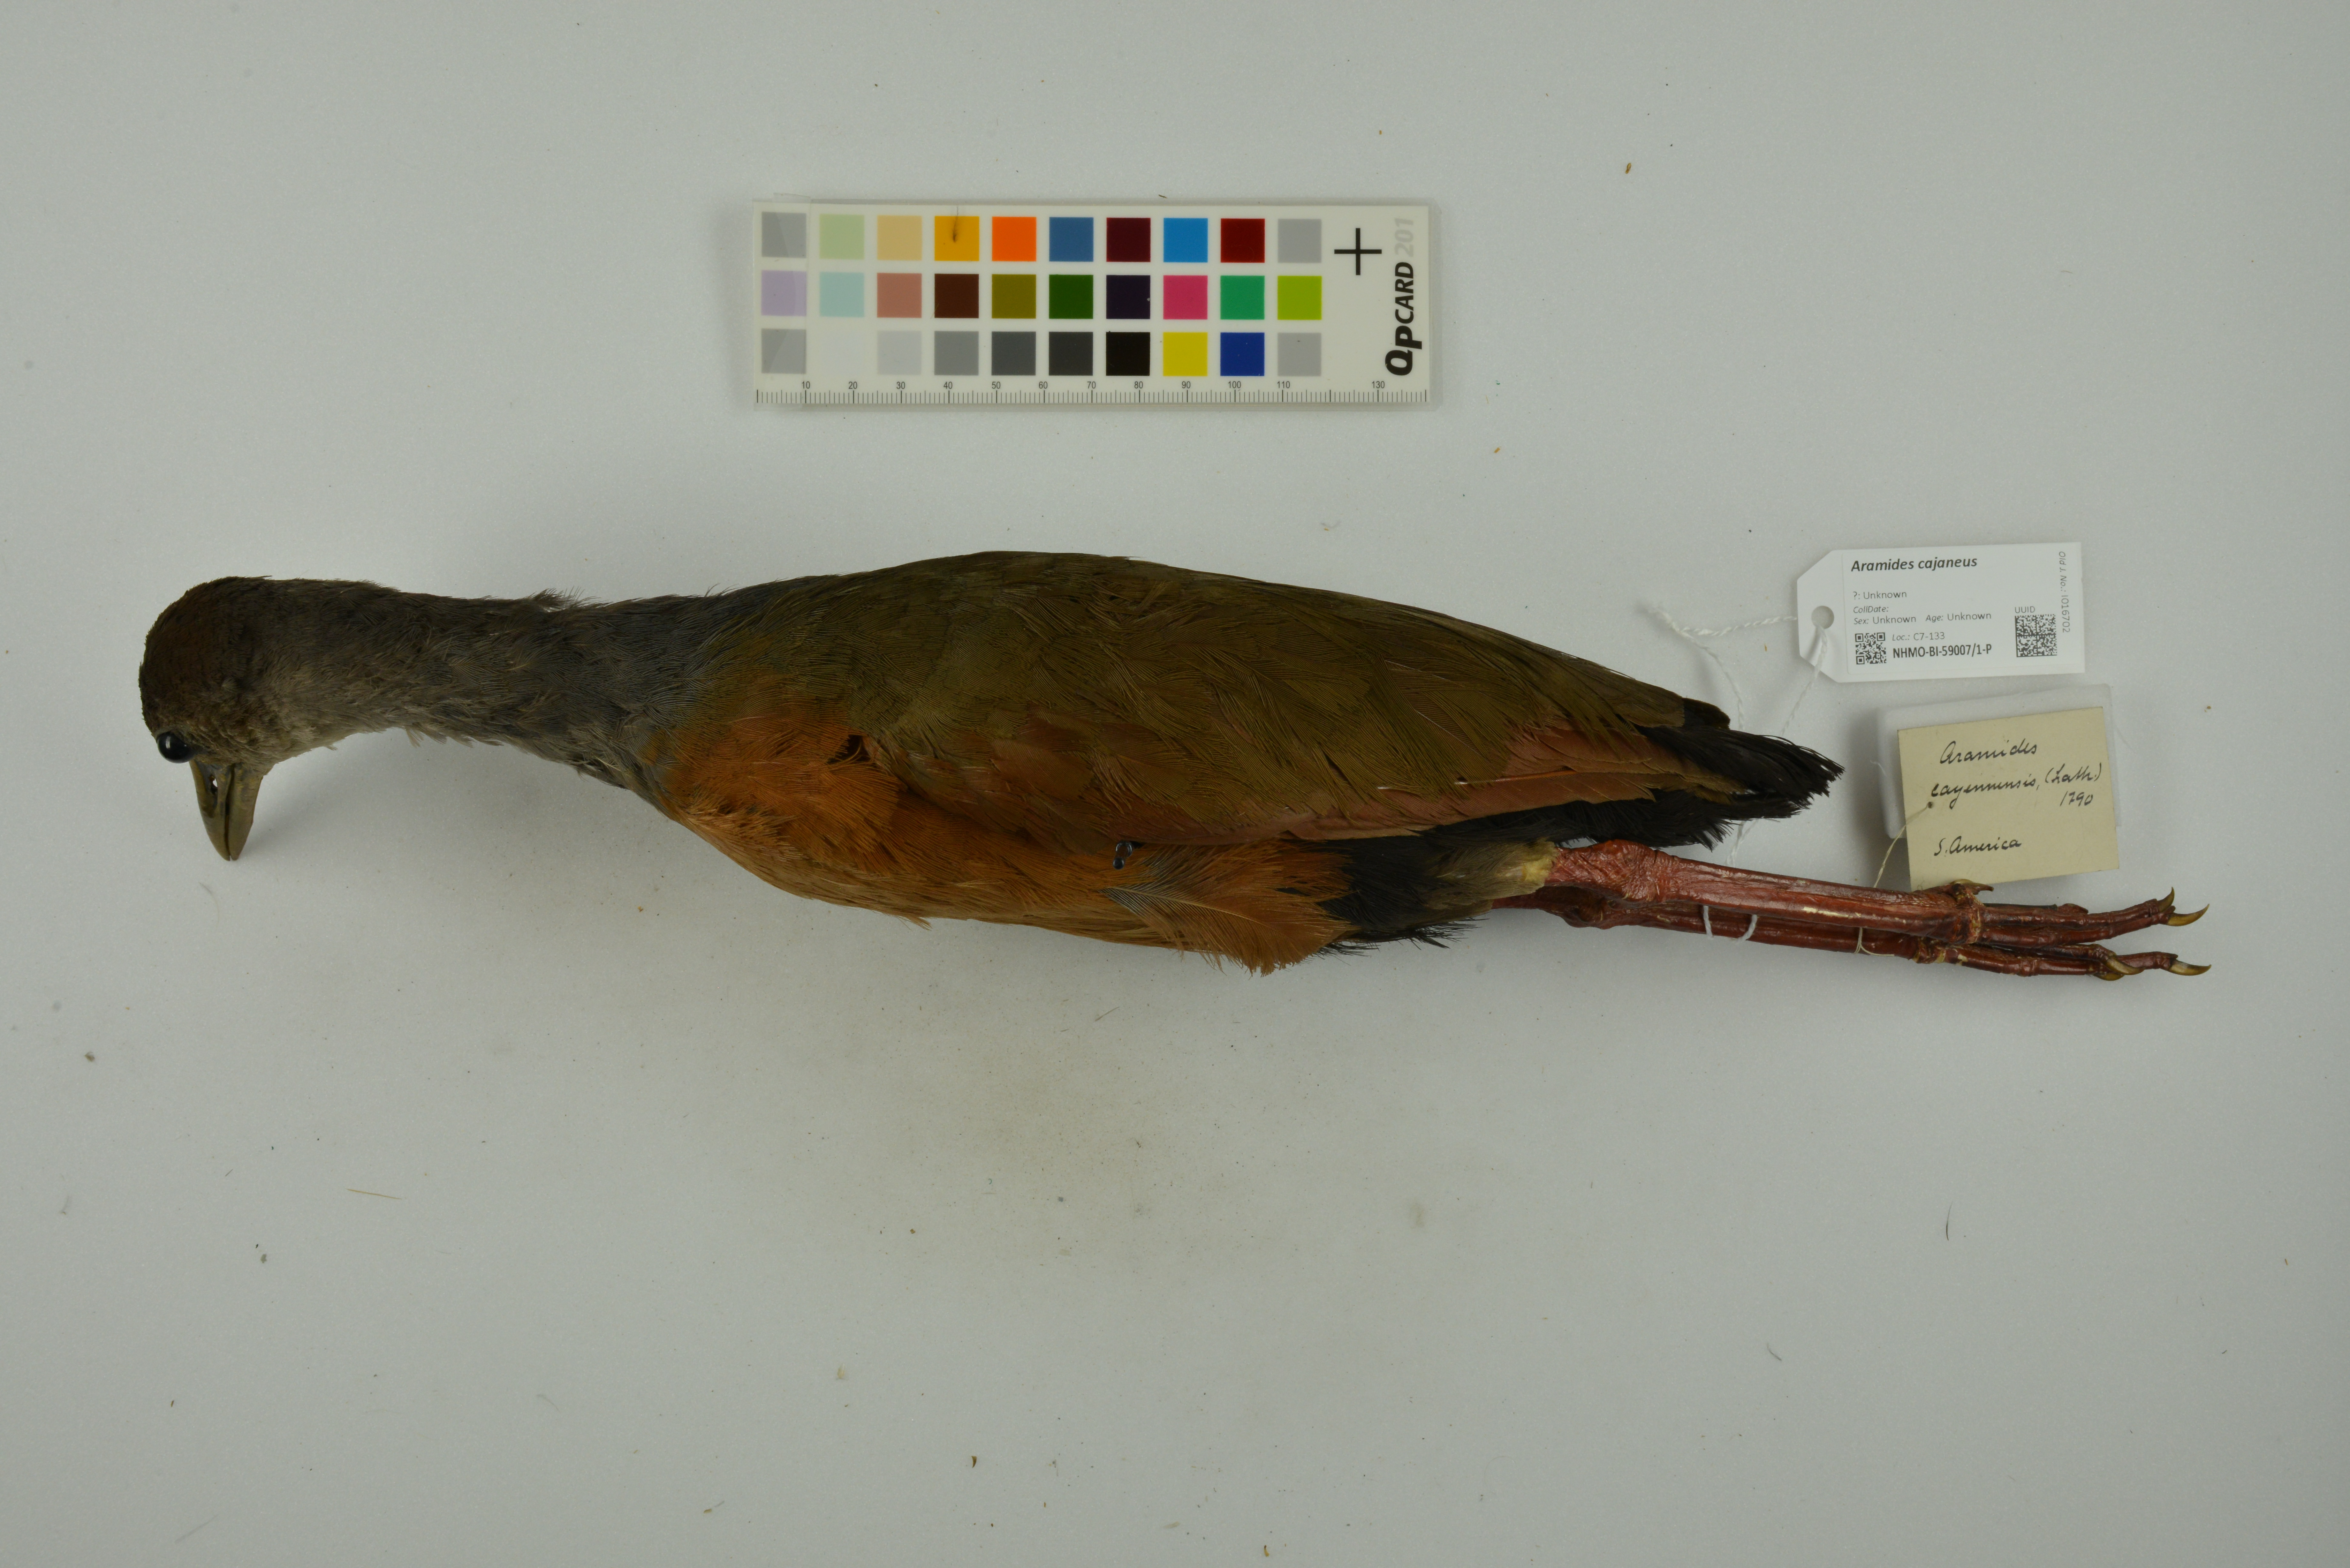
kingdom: Animalia
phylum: Chordata
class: Aves
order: Gruiformes
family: Rallidae
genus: Aramides
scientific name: Aramides cajanea
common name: Gray-necked wood-rail
